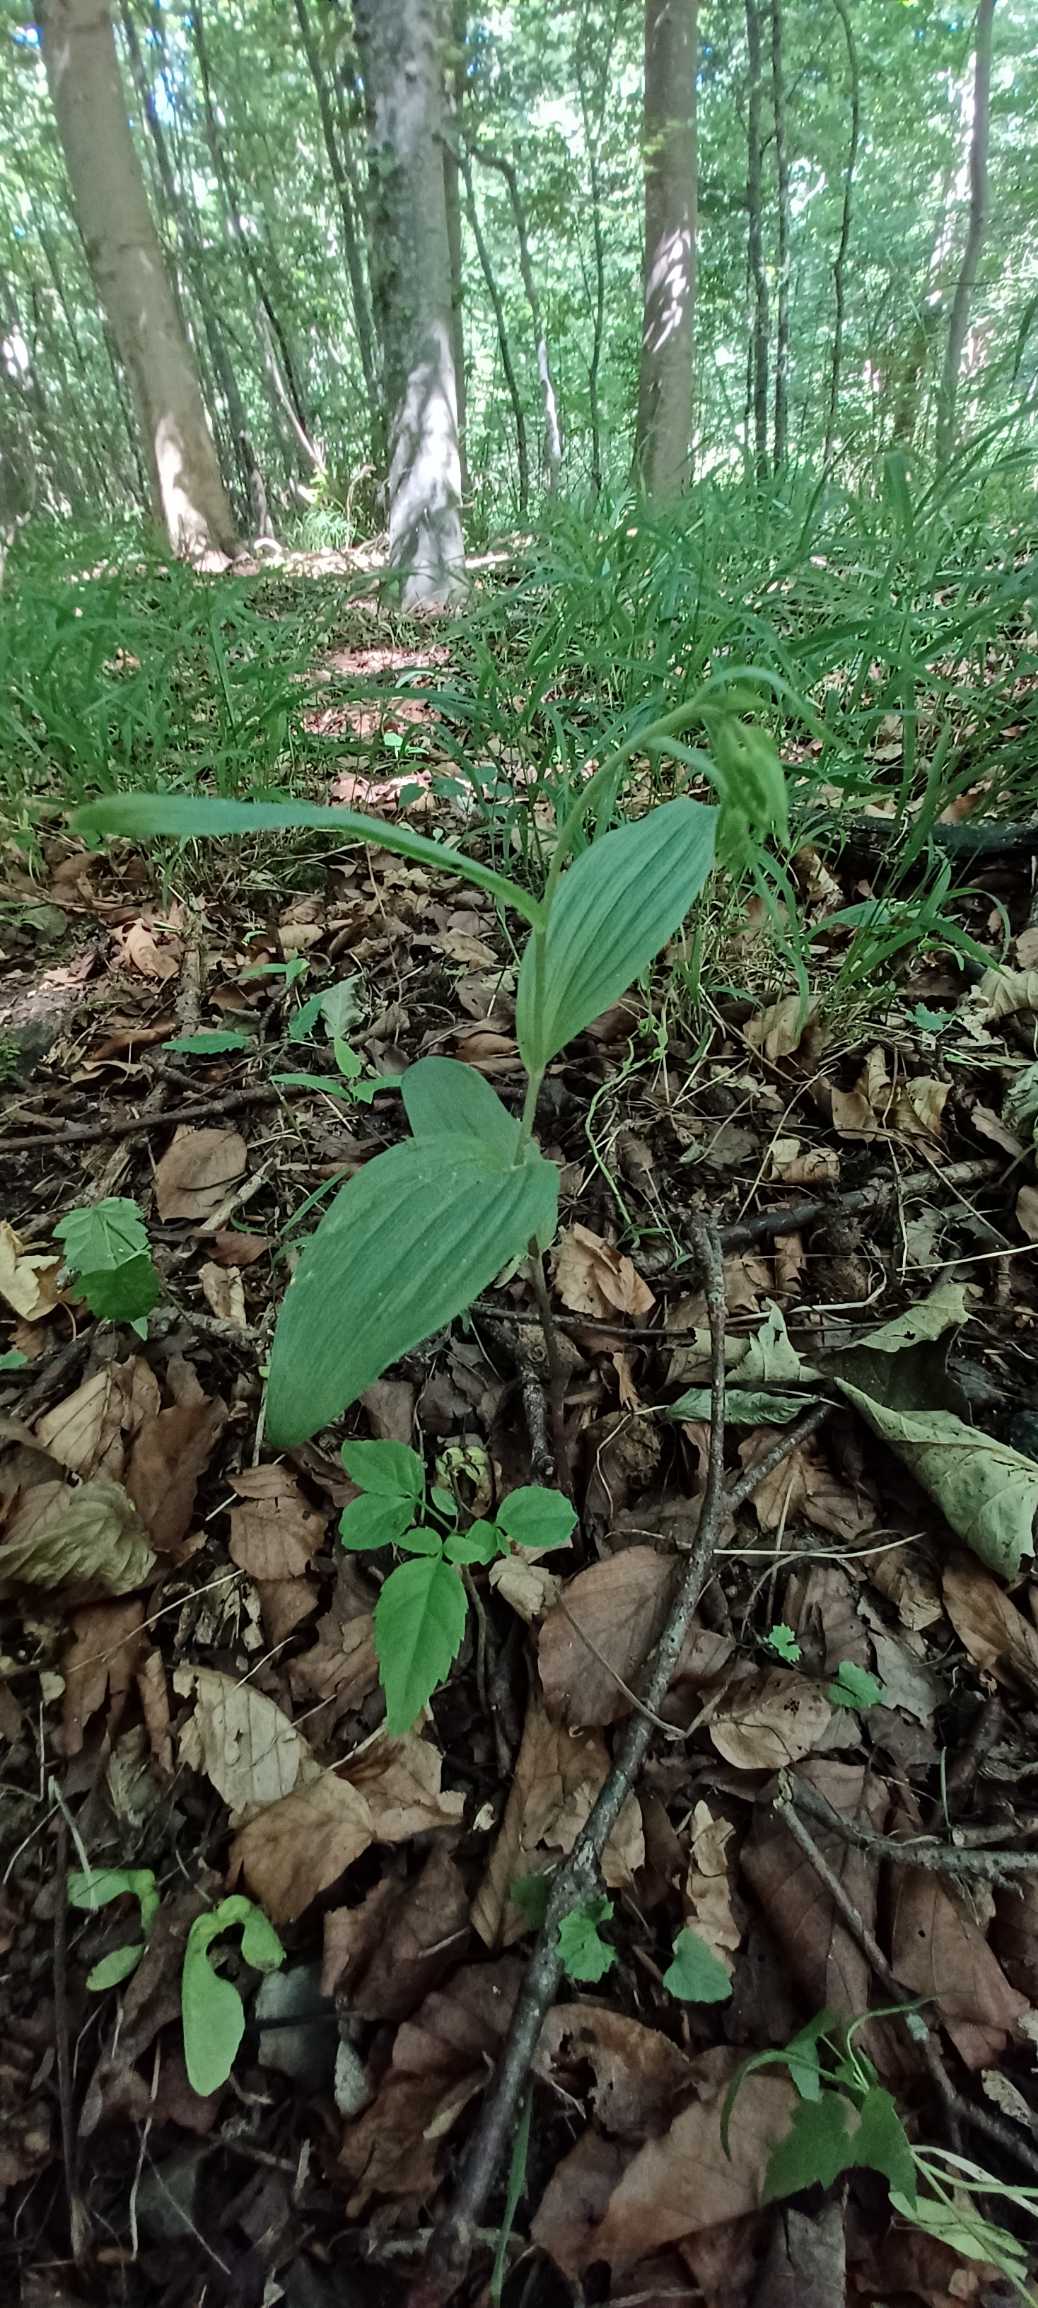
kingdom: Plantae
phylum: Tracheophyta
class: Liliopsida
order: Asparagales
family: Orchidaceae
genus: Epipactis
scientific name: Epipactis helleborine
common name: Skov-hullæbe
